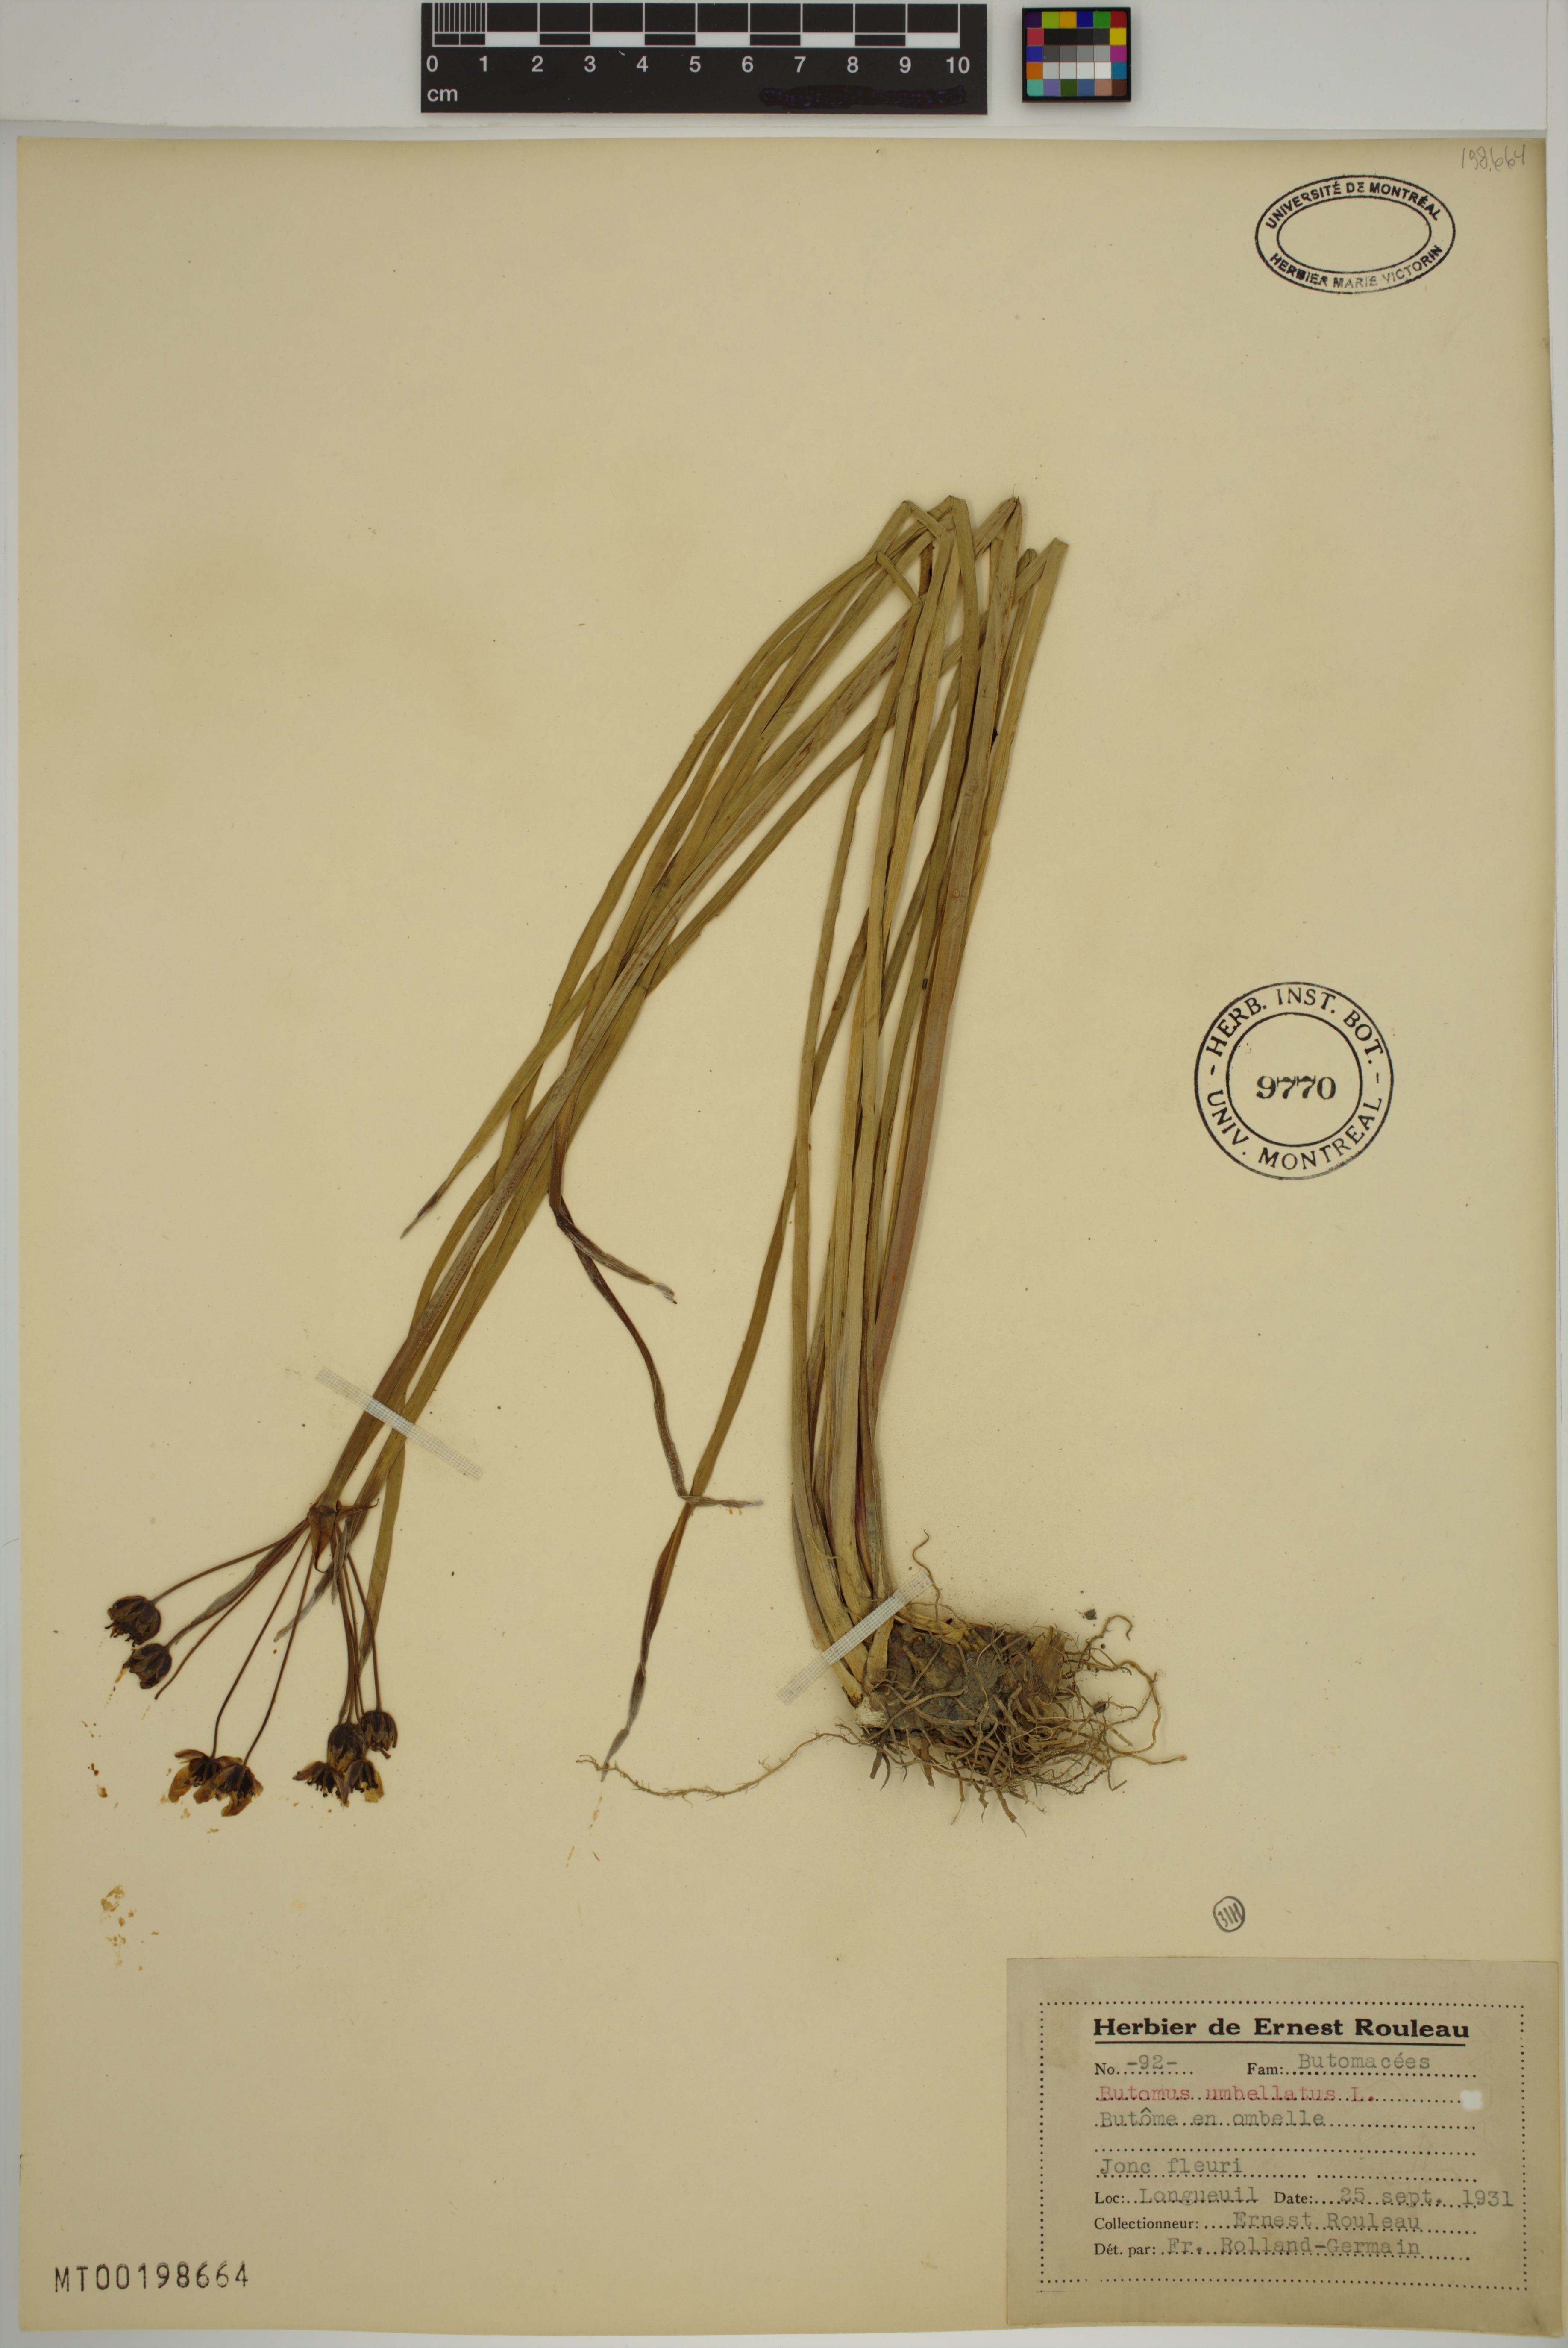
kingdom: Plantae
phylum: Tracheophyta
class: Liliopsida
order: Alismatales
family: Butomaceae
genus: Butomus
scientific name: Butomus umbellatus
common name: Flowering-rush
